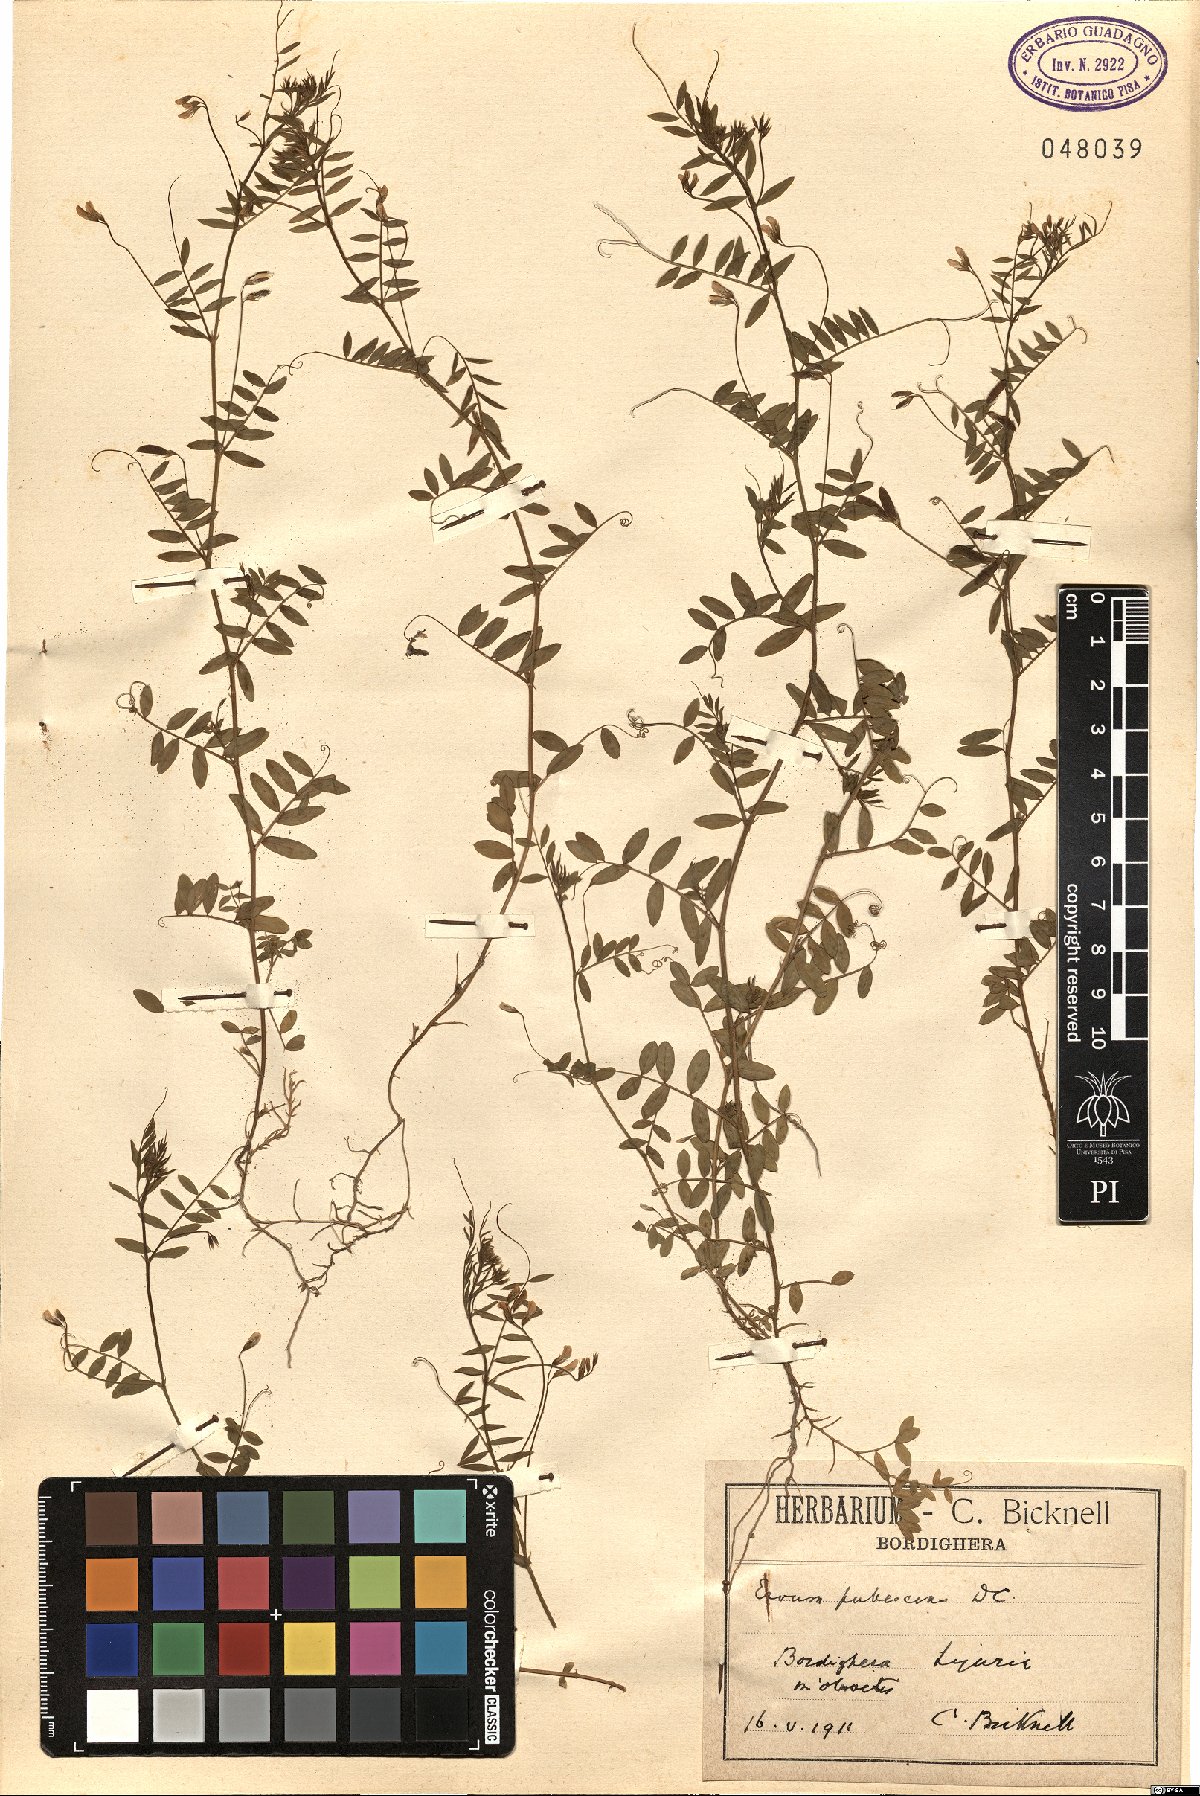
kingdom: Plantae
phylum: Tracheophyta
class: Magnoliopsida
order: Fabales
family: Fabaceae
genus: Vicia
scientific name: Vicia pubescens
